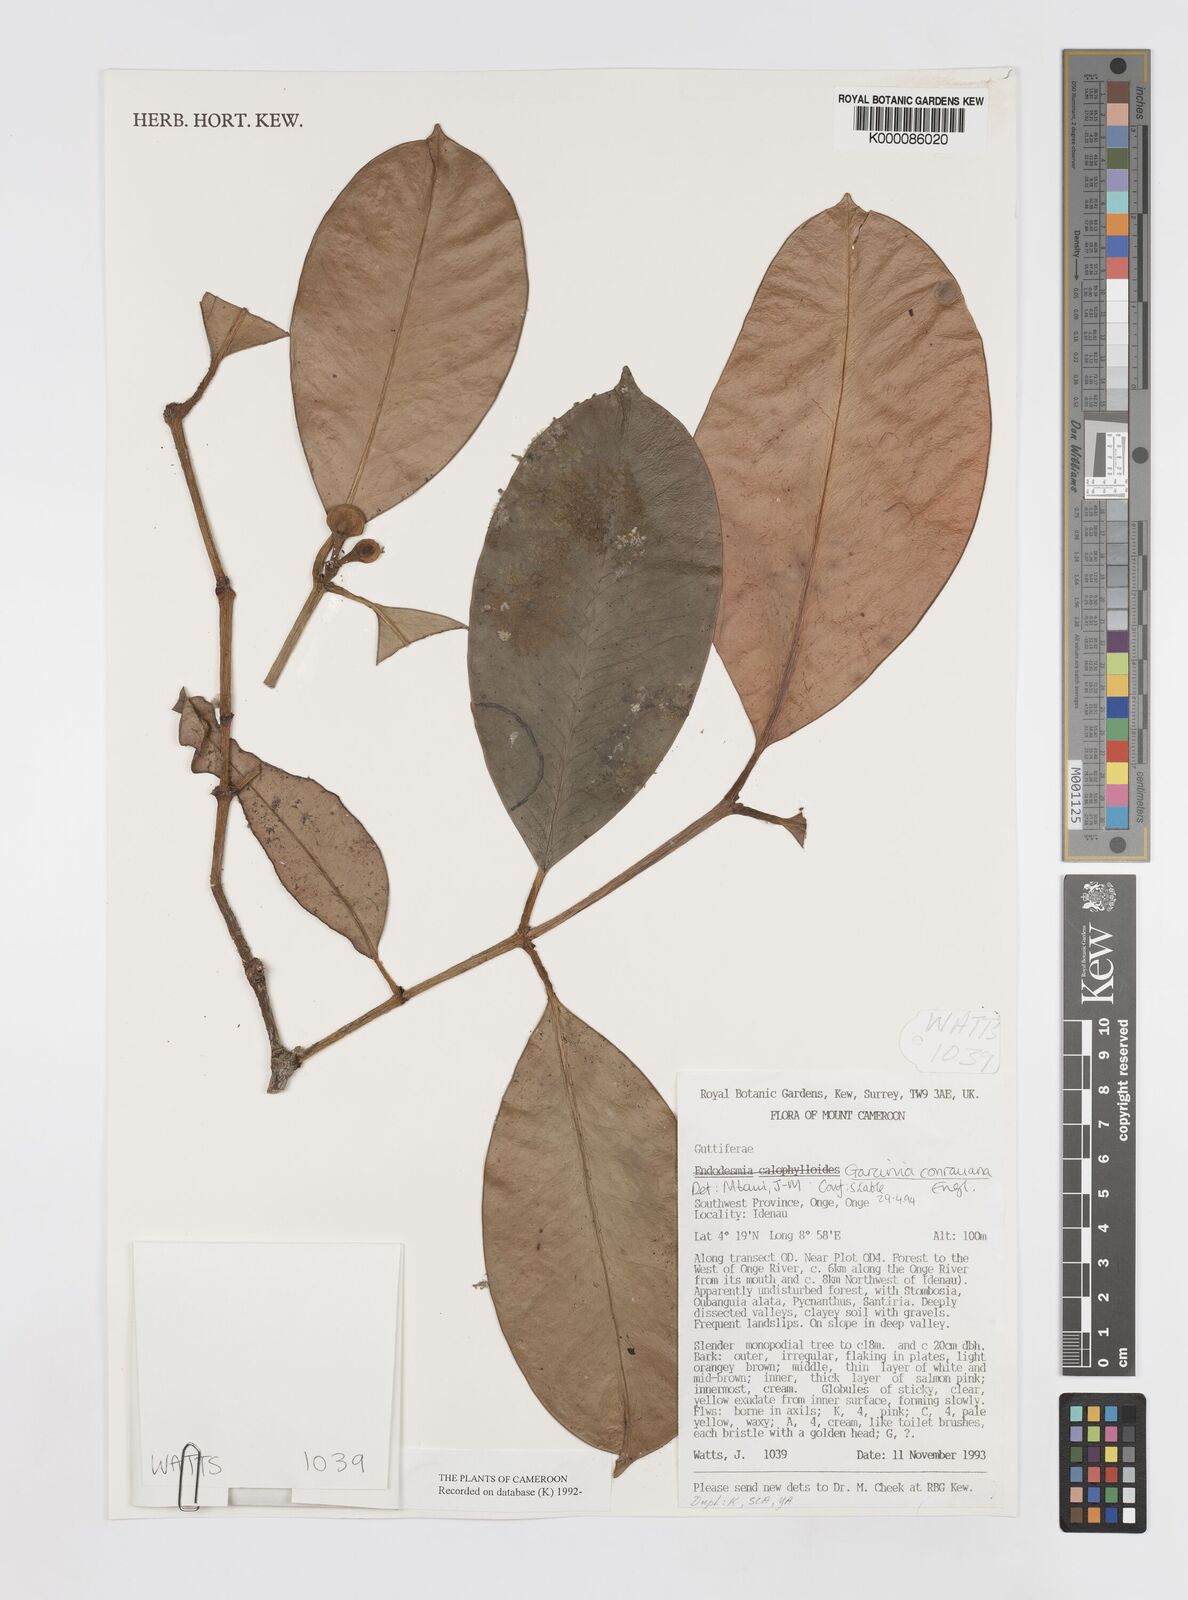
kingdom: Plantae
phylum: Tracheophyta
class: Magnoliopsida
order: Malpighiales
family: Clusiaceae
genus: Garcinia
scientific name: Garcinia conrauana
